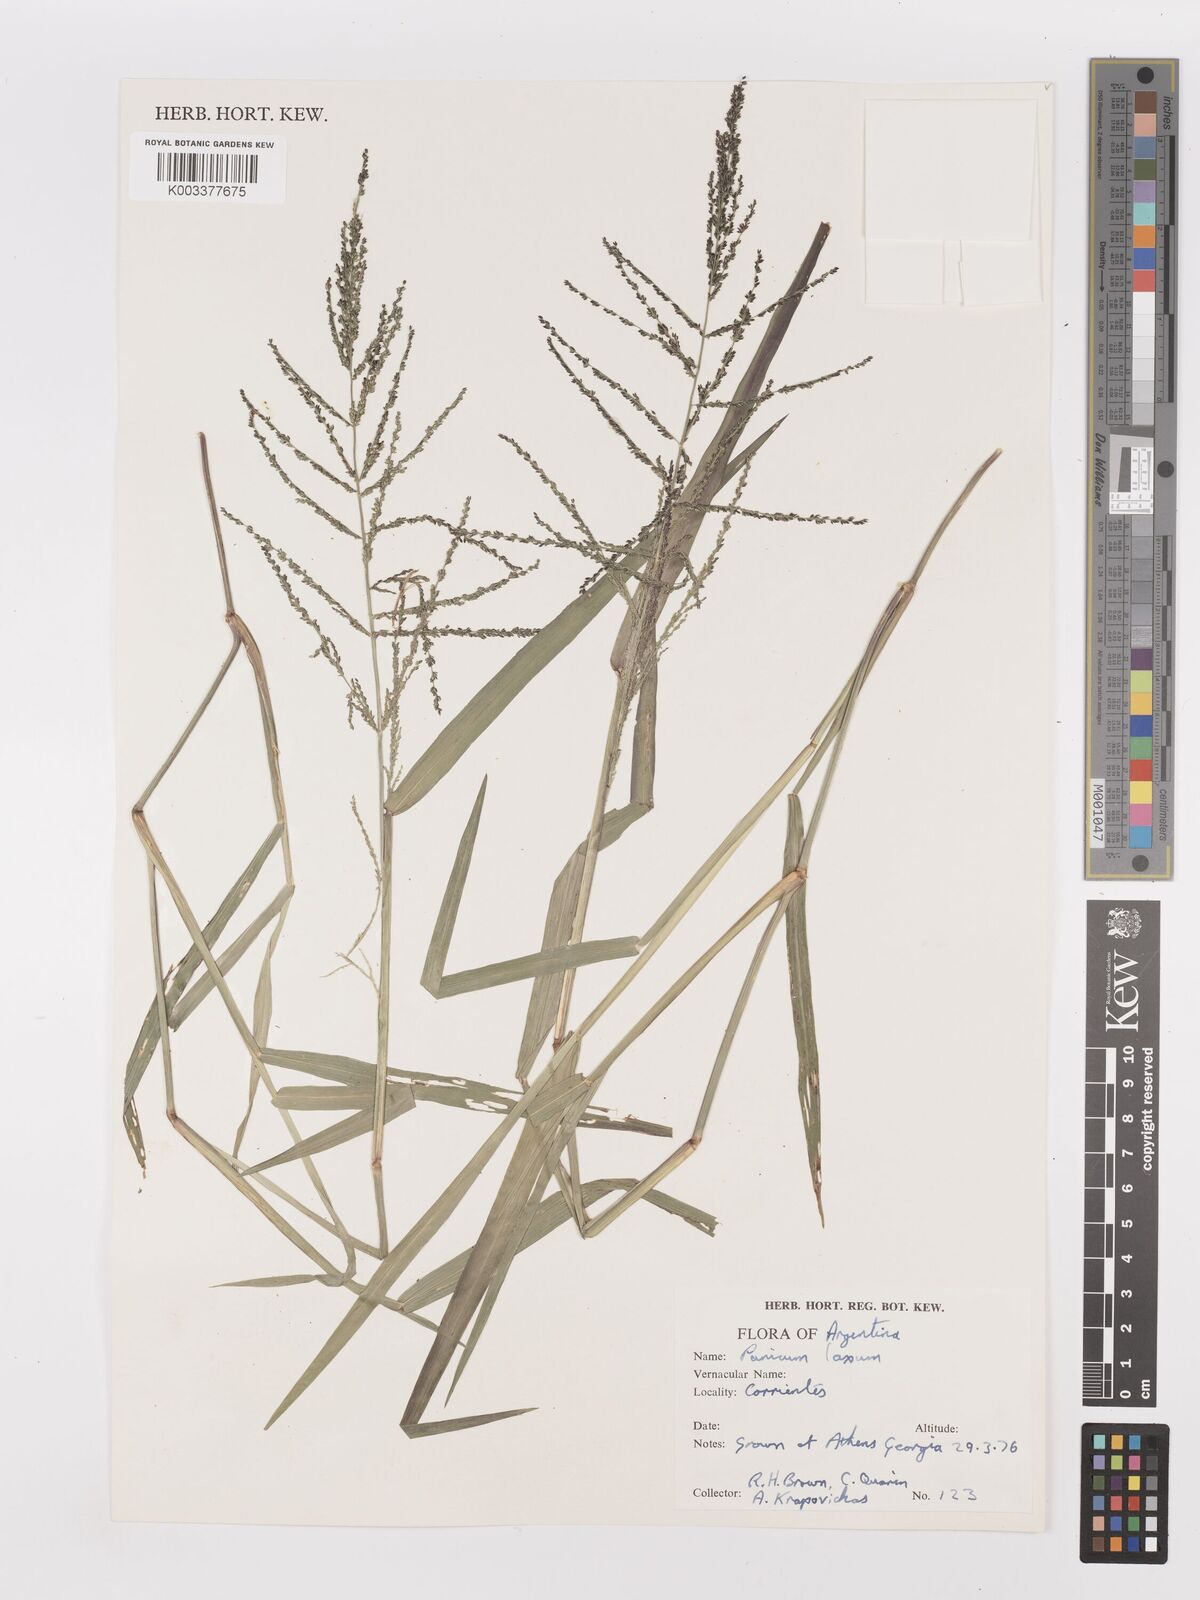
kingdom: Plantae
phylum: Tracheophyta
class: Liliopsida
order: Poales
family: Poaceae
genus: Steinchisma
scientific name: Steinchisma laxum
